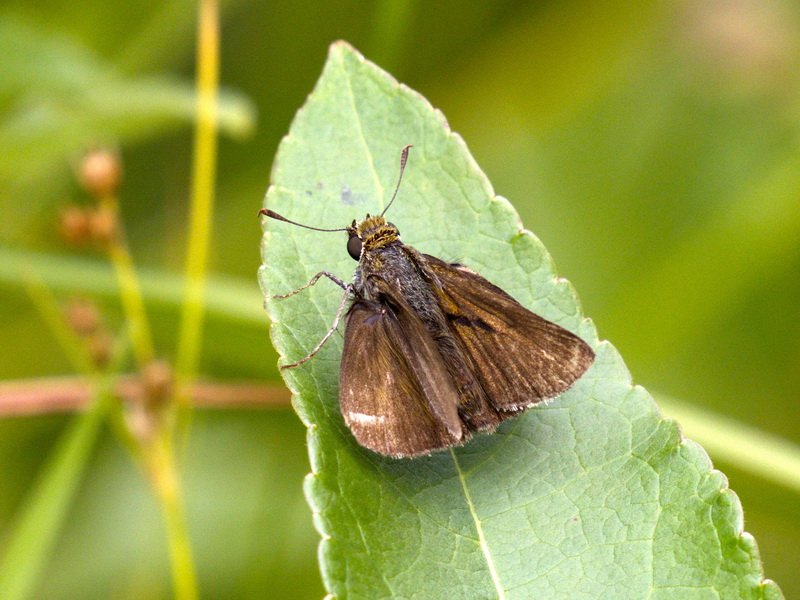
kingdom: Animalia
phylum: Arthropoda
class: Insecta
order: Lepidoptera
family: Hesperiidae
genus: Euphyes
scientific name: Euphyes vestris
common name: Dun Skipper
